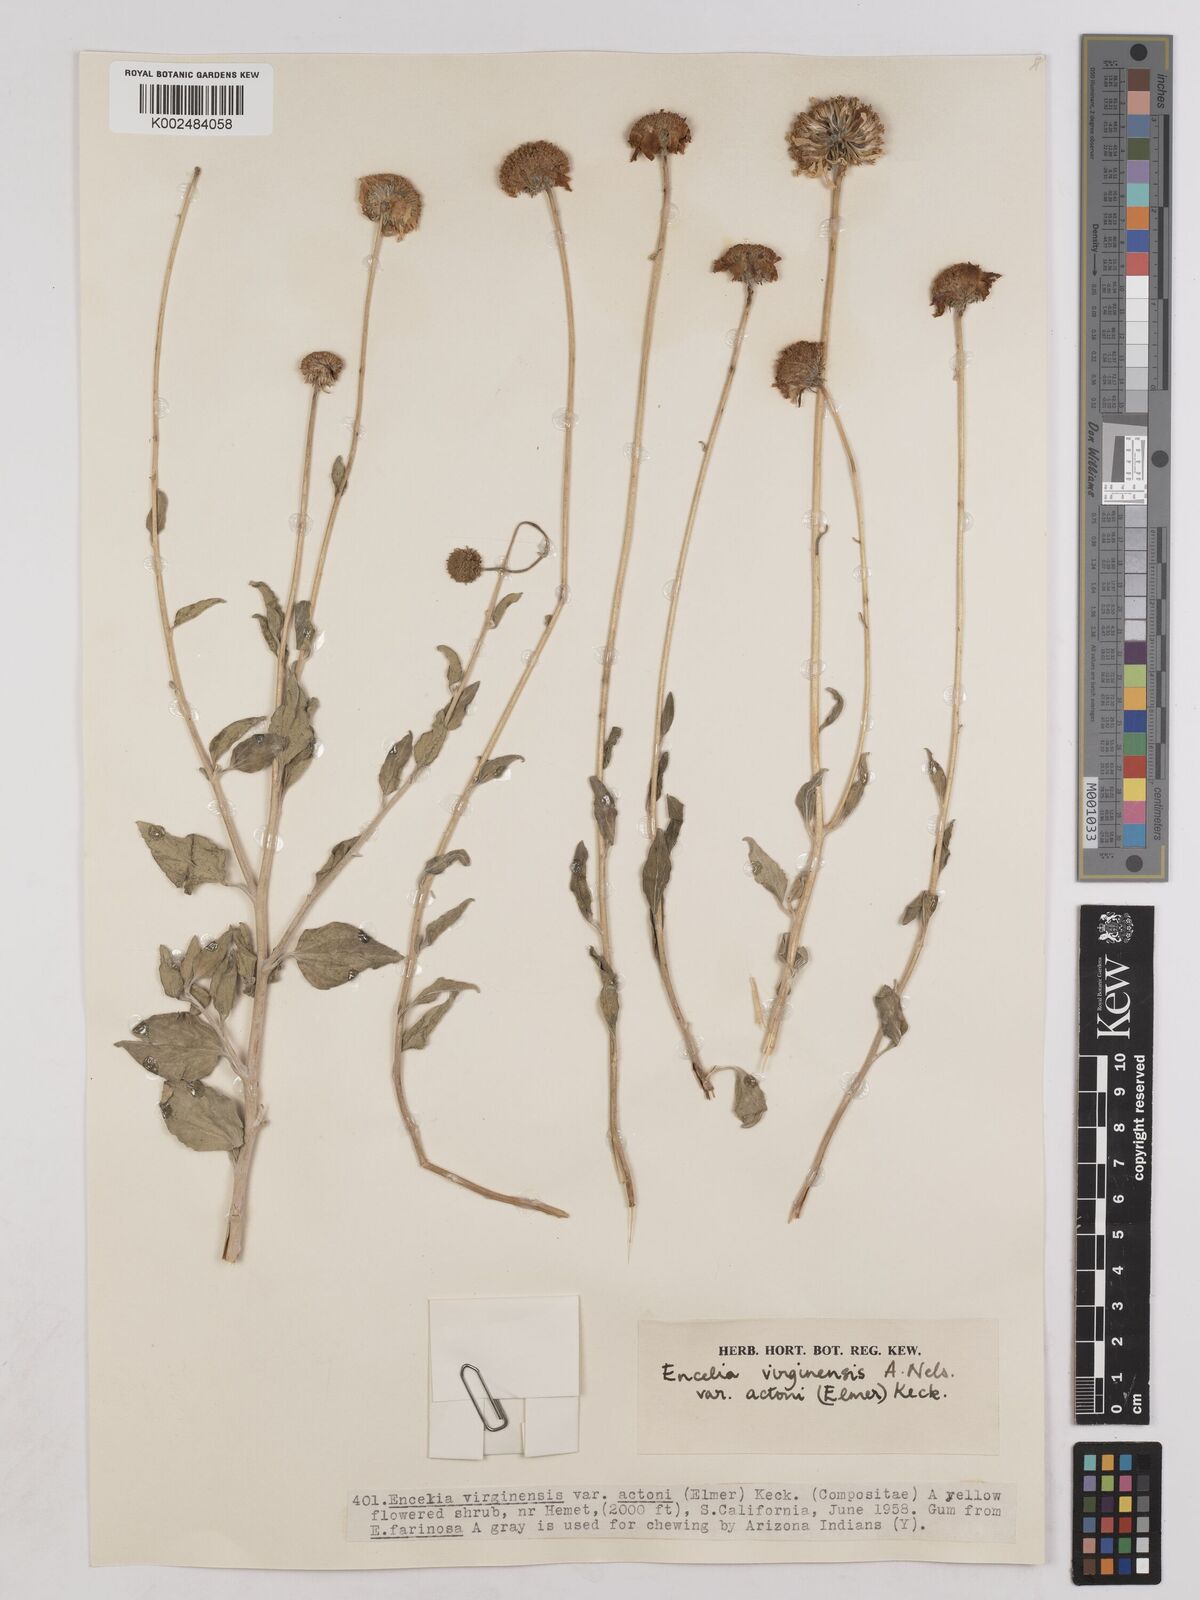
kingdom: Plantae
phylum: Tracheophyta
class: Magnoliopsida
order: Asterales
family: Asteraceae
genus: Encelia
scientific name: Encelia virginensis
